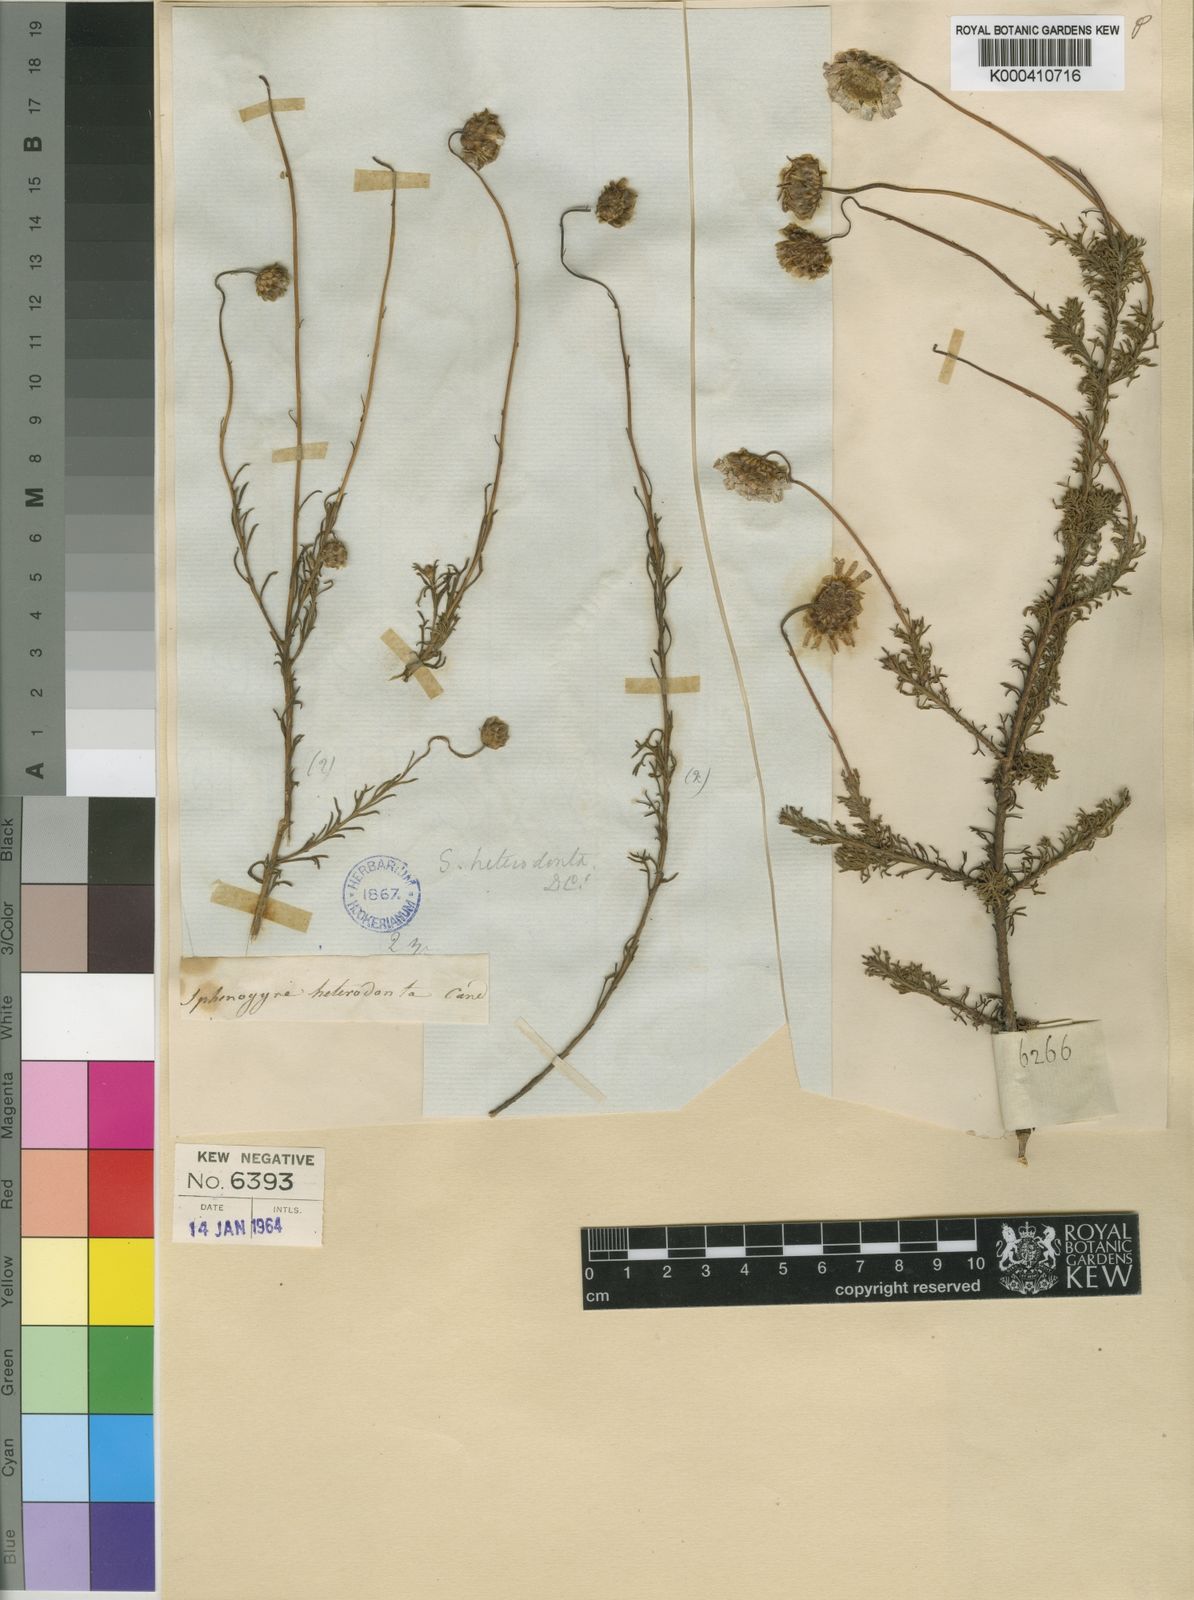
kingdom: Plantae
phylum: Tracheophyta
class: Magnoliopsida
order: Asterales
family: Asteraceae
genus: Ursinia
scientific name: Ursinia heterodonta
